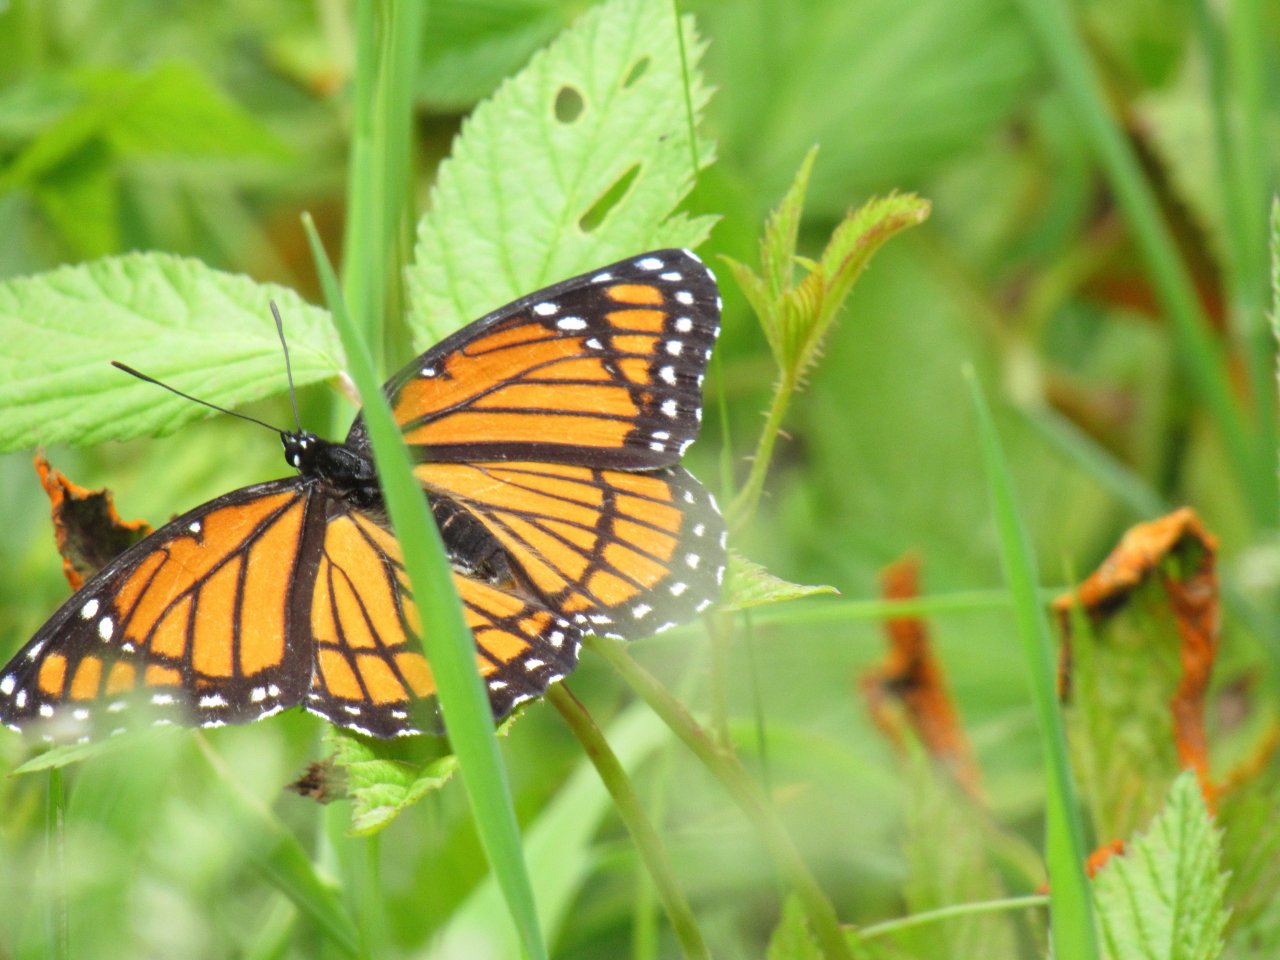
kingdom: Animalia
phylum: Arthropoda
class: Insecta
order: Lepidoptera
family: Nymphalidae
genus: Limenitis
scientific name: Limenitis archippus
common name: Viceroy
